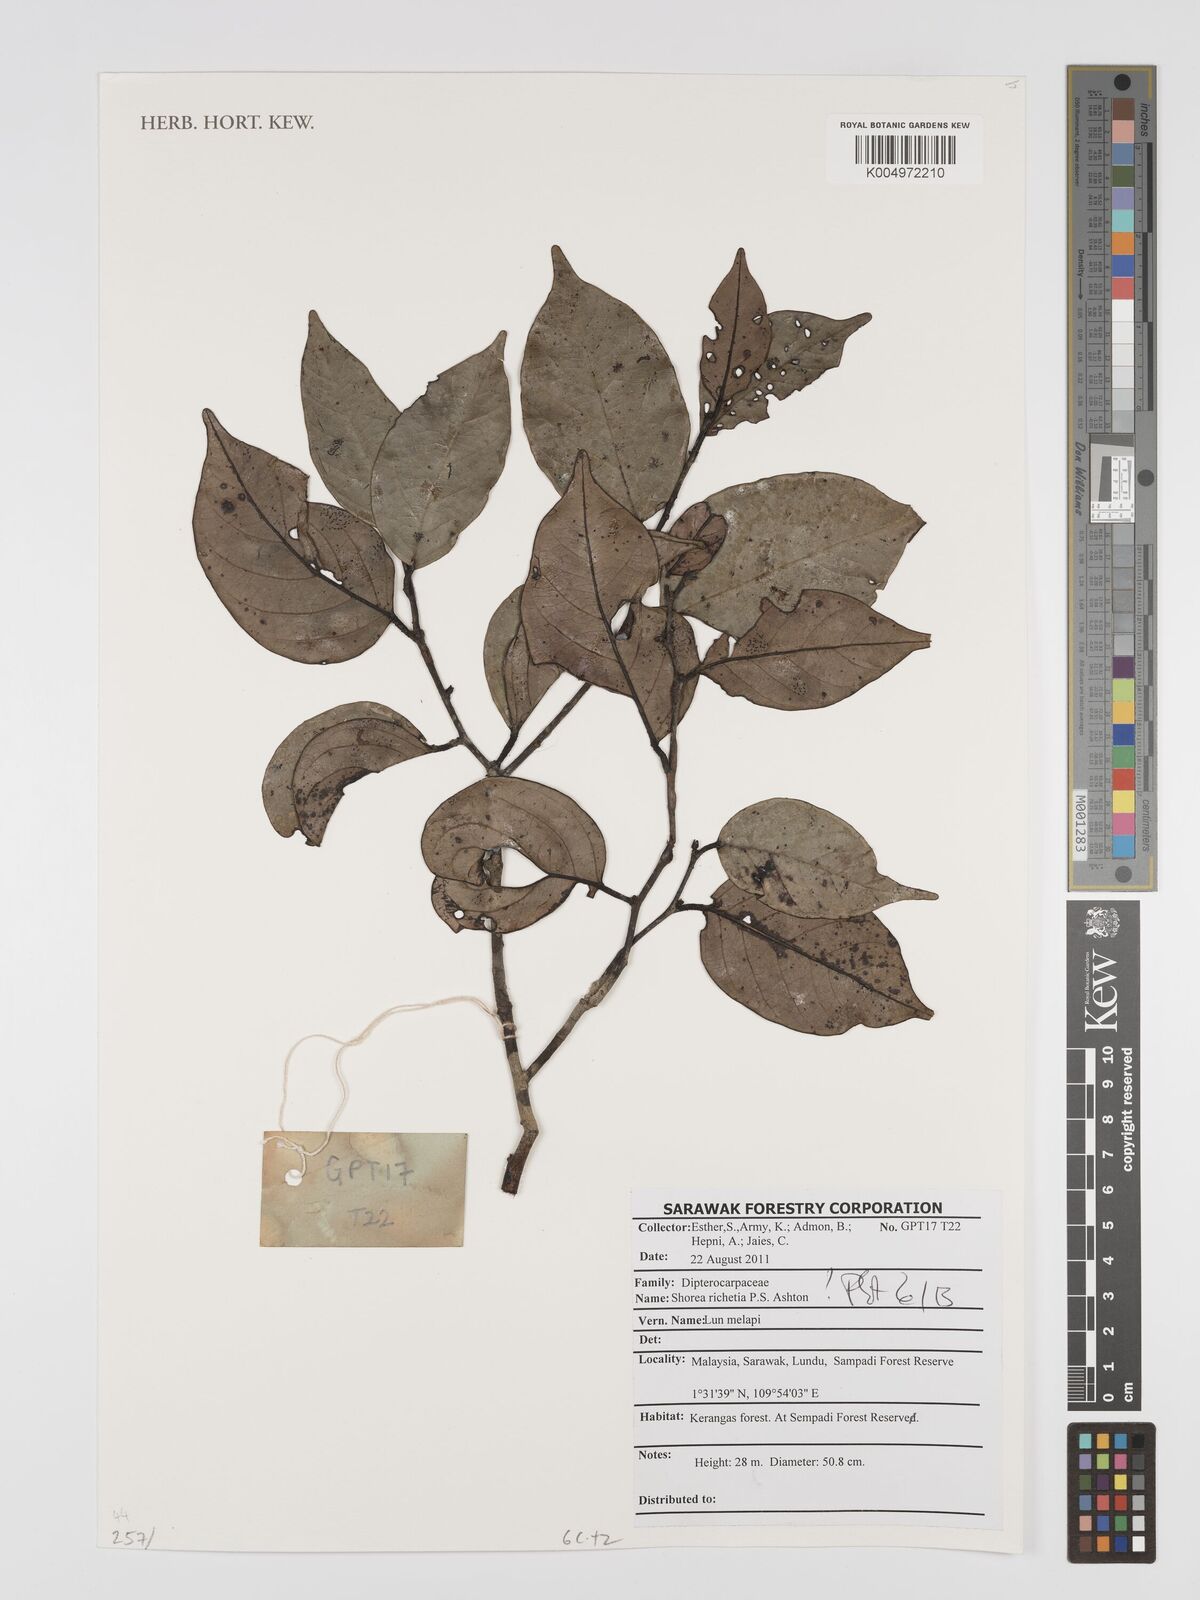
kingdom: Plantae
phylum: Tracheophyta
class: Magnoliopsida
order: Malvales
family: Dipterocarpaceae
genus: Shorea
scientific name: Shorea richetia
